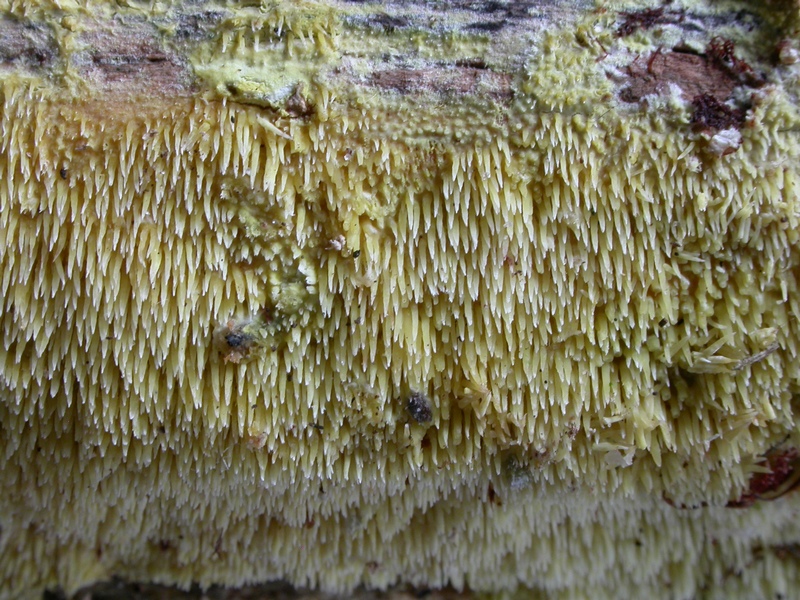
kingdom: Fungi
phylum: Basidiomycota
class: Agaricomycetes
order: Polyporales
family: Meruliaceae
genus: Mycoacia
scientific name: Mycoacia uda
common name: citrongul vokspig
